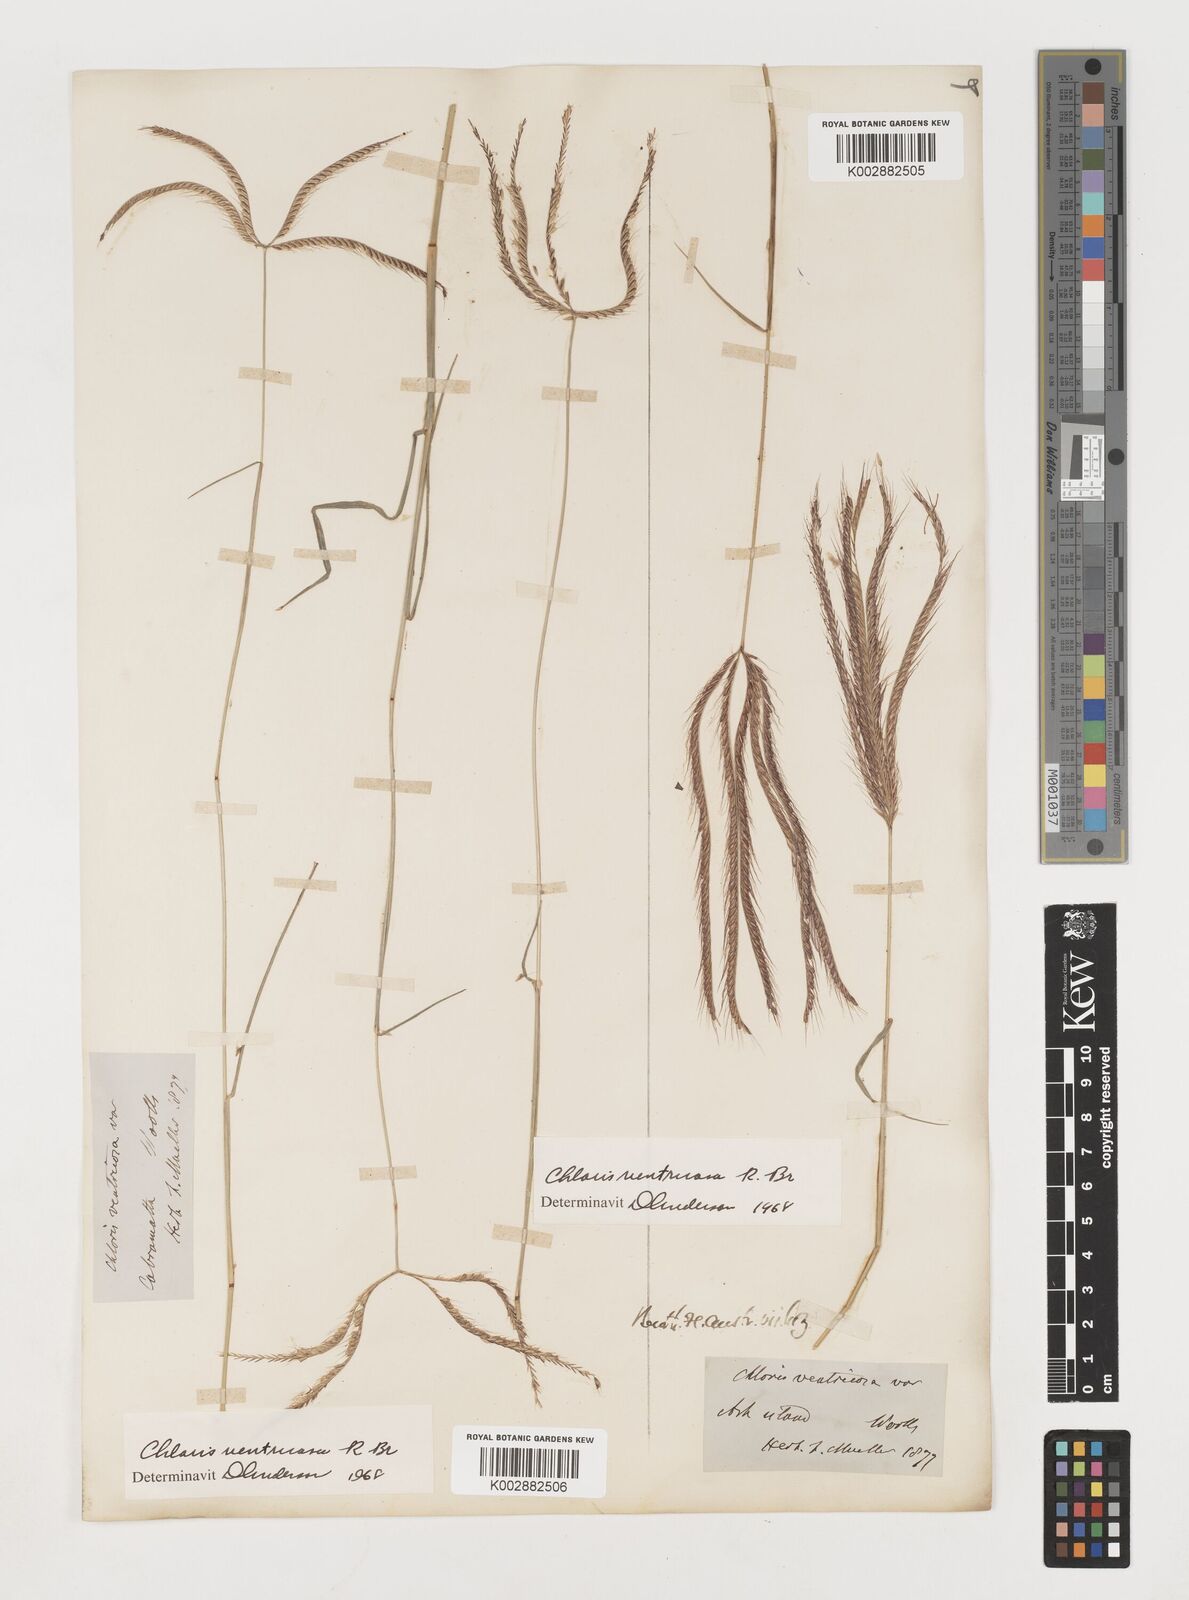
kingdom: Plantae
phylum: Tracheophyta
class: Liliopsida
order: Poales
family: Poaceae
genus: Chloris
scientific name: Chloris ventricosa
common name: Australian windmill grass
